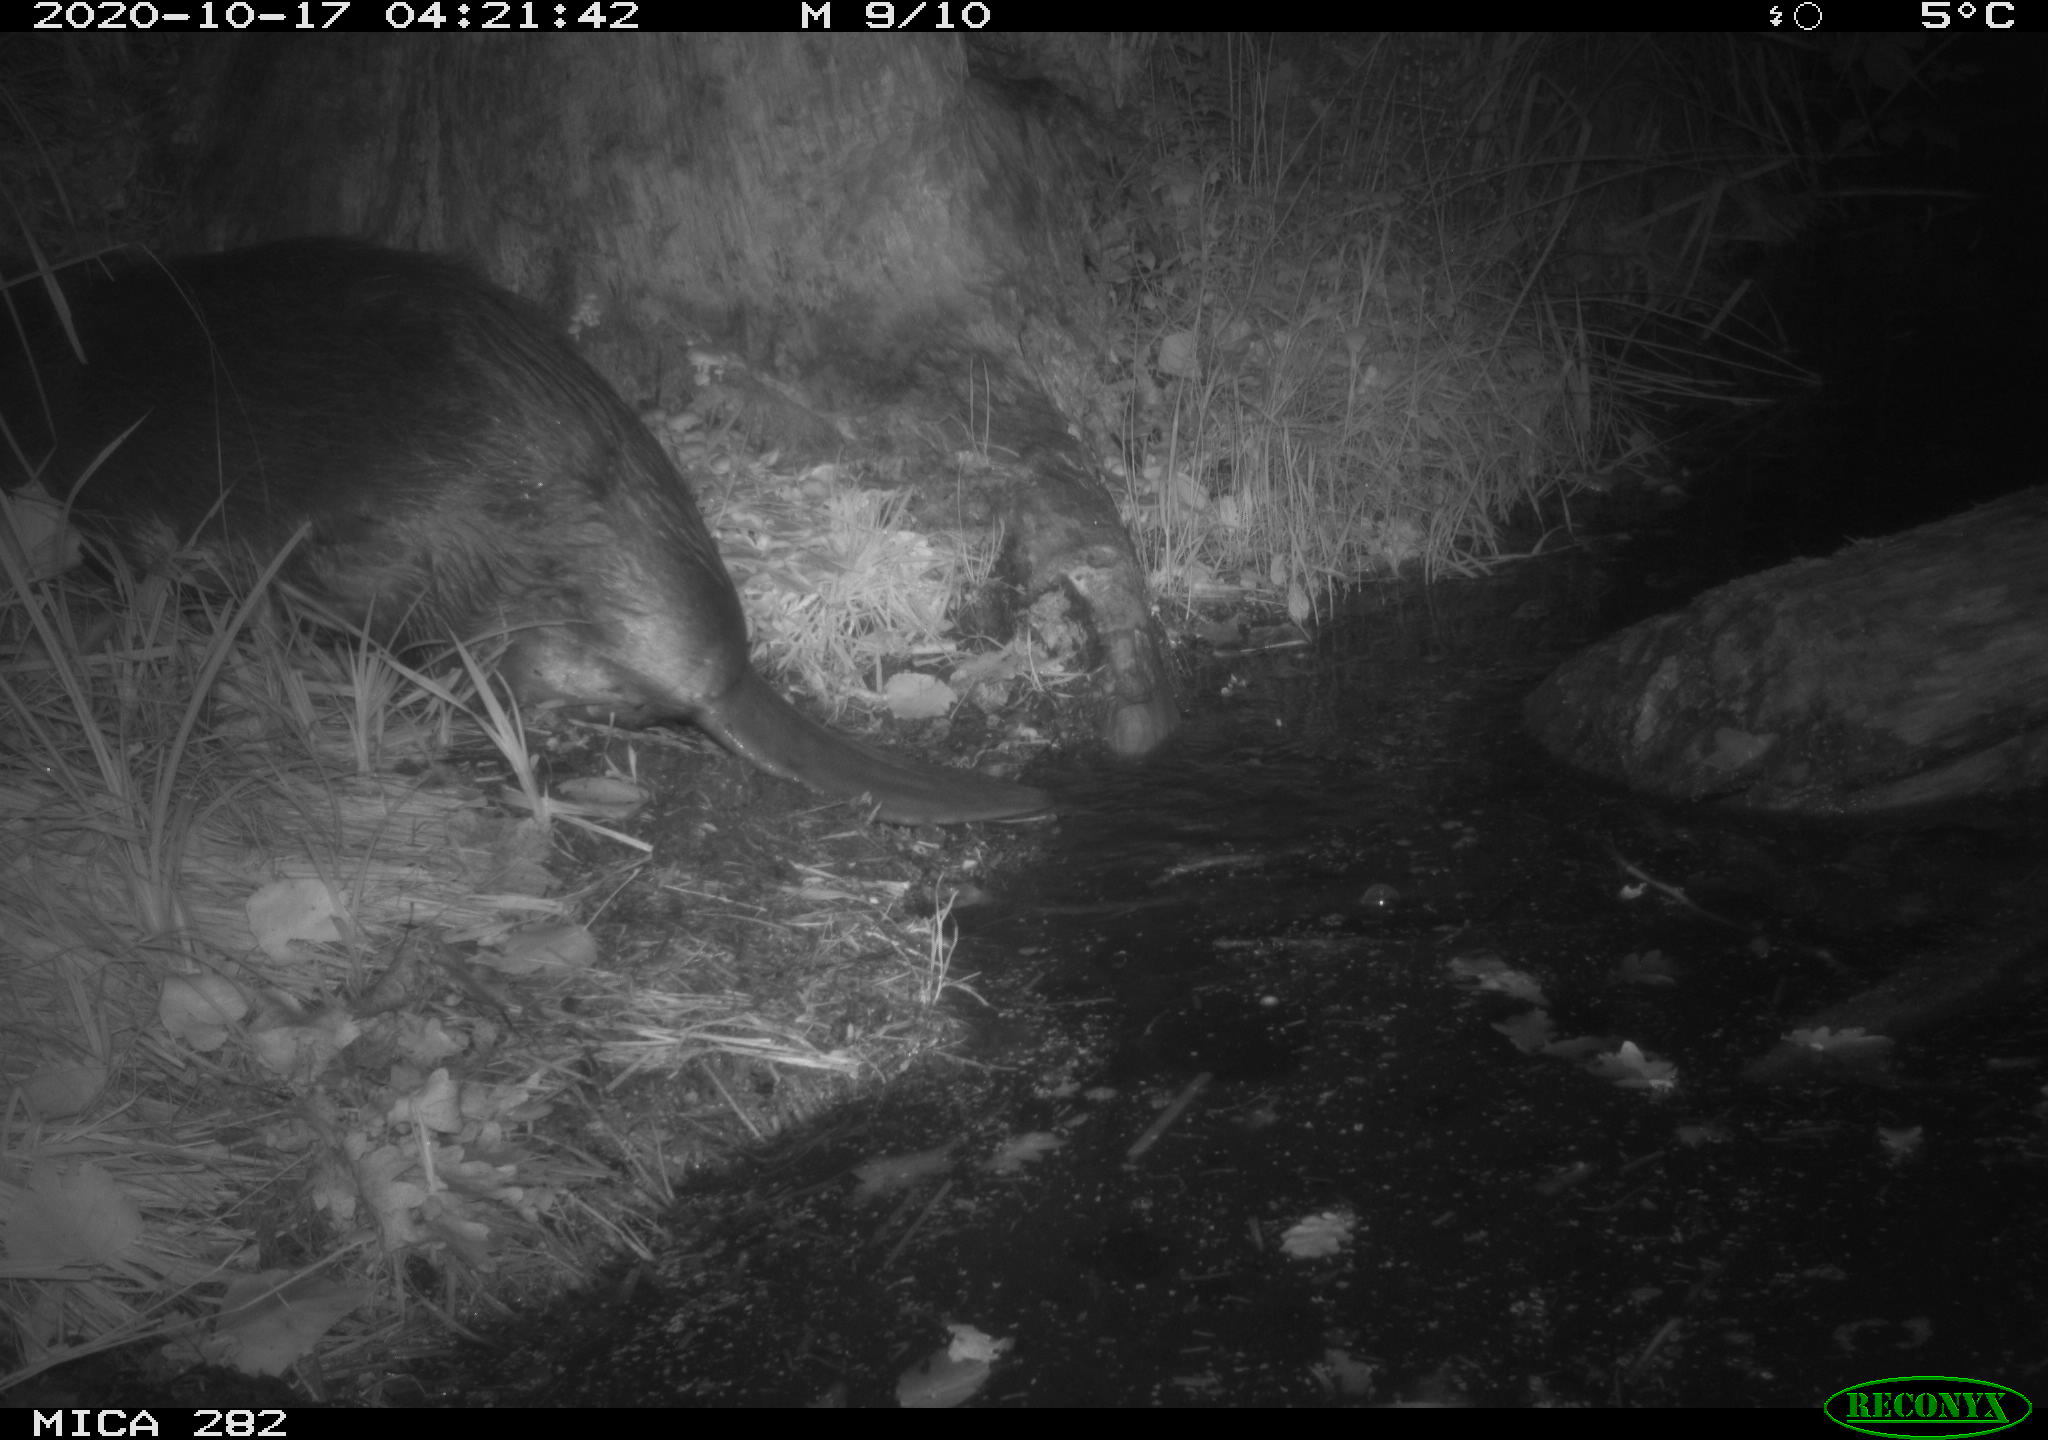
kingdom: Animalia
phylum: Chordata
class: Mammalia
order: Rodentia
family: Castoridae
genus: Castor
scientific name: Castor fiber
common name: Eurasian beaver
